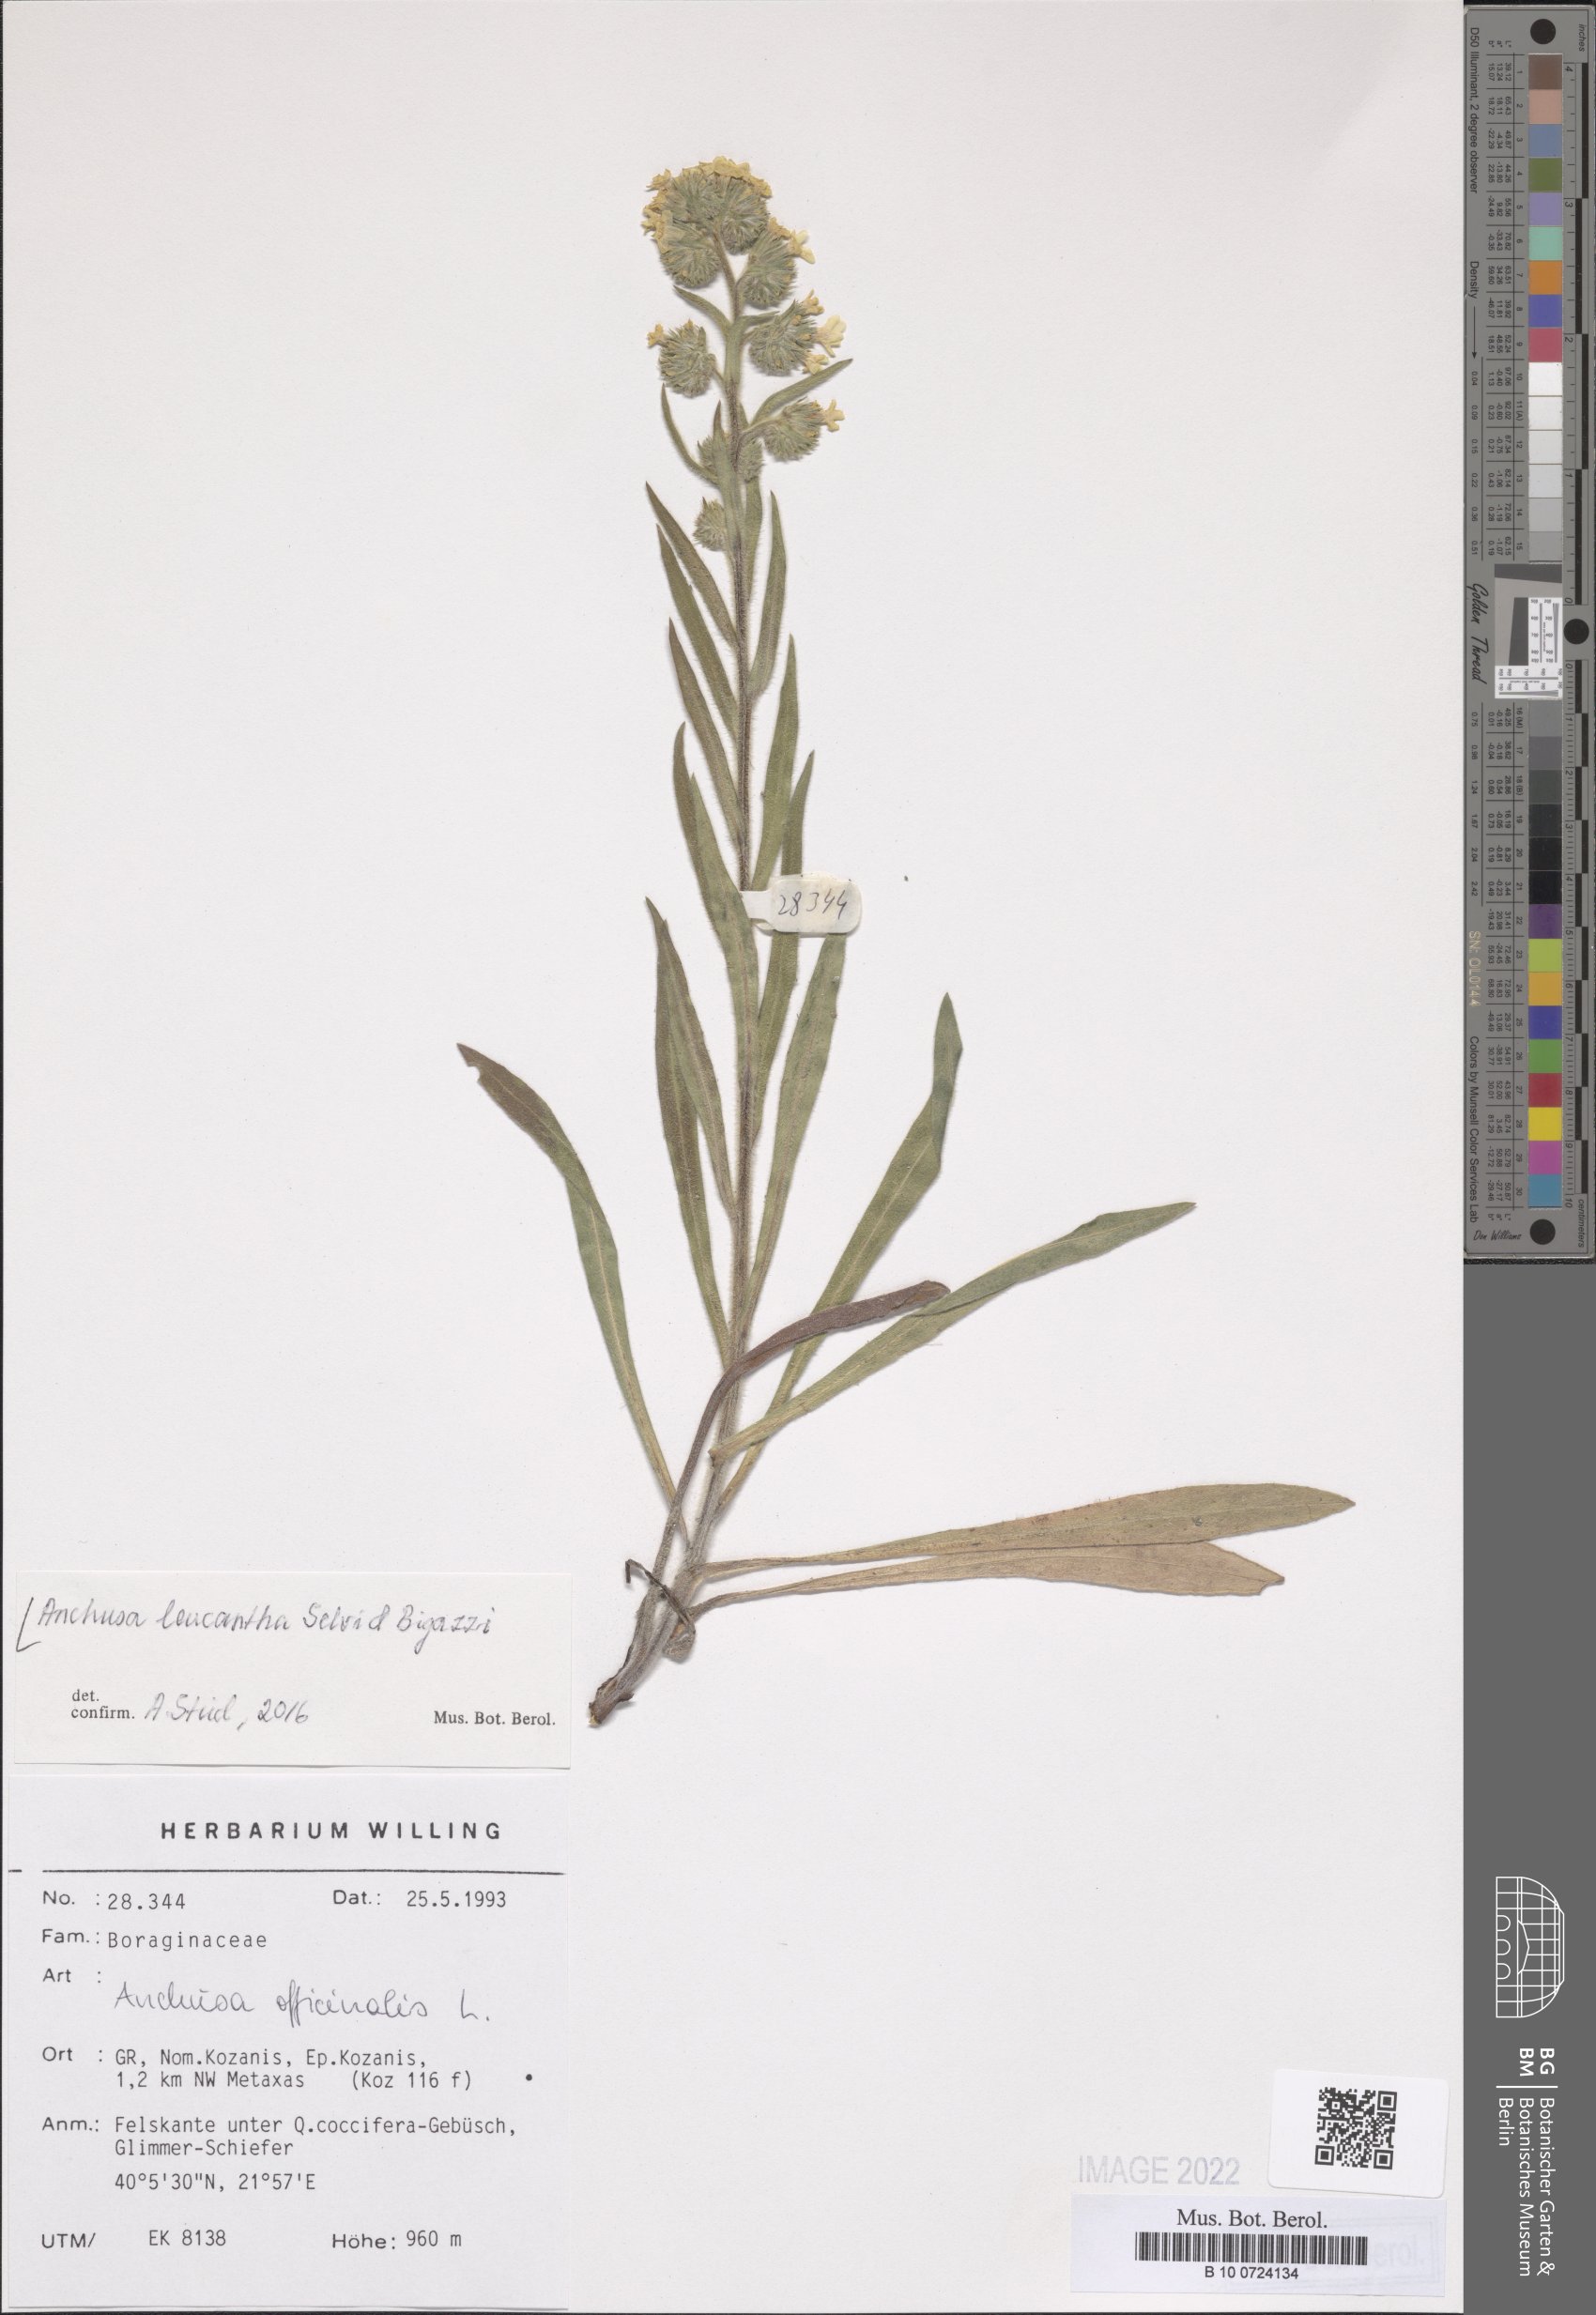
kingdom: Plantae
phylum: Tracheophyta
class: Magnoliopsida
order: Boraginales
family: Boraginaceae
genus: Anchusa
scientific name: Anchusa officinalis
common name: Alkanet
